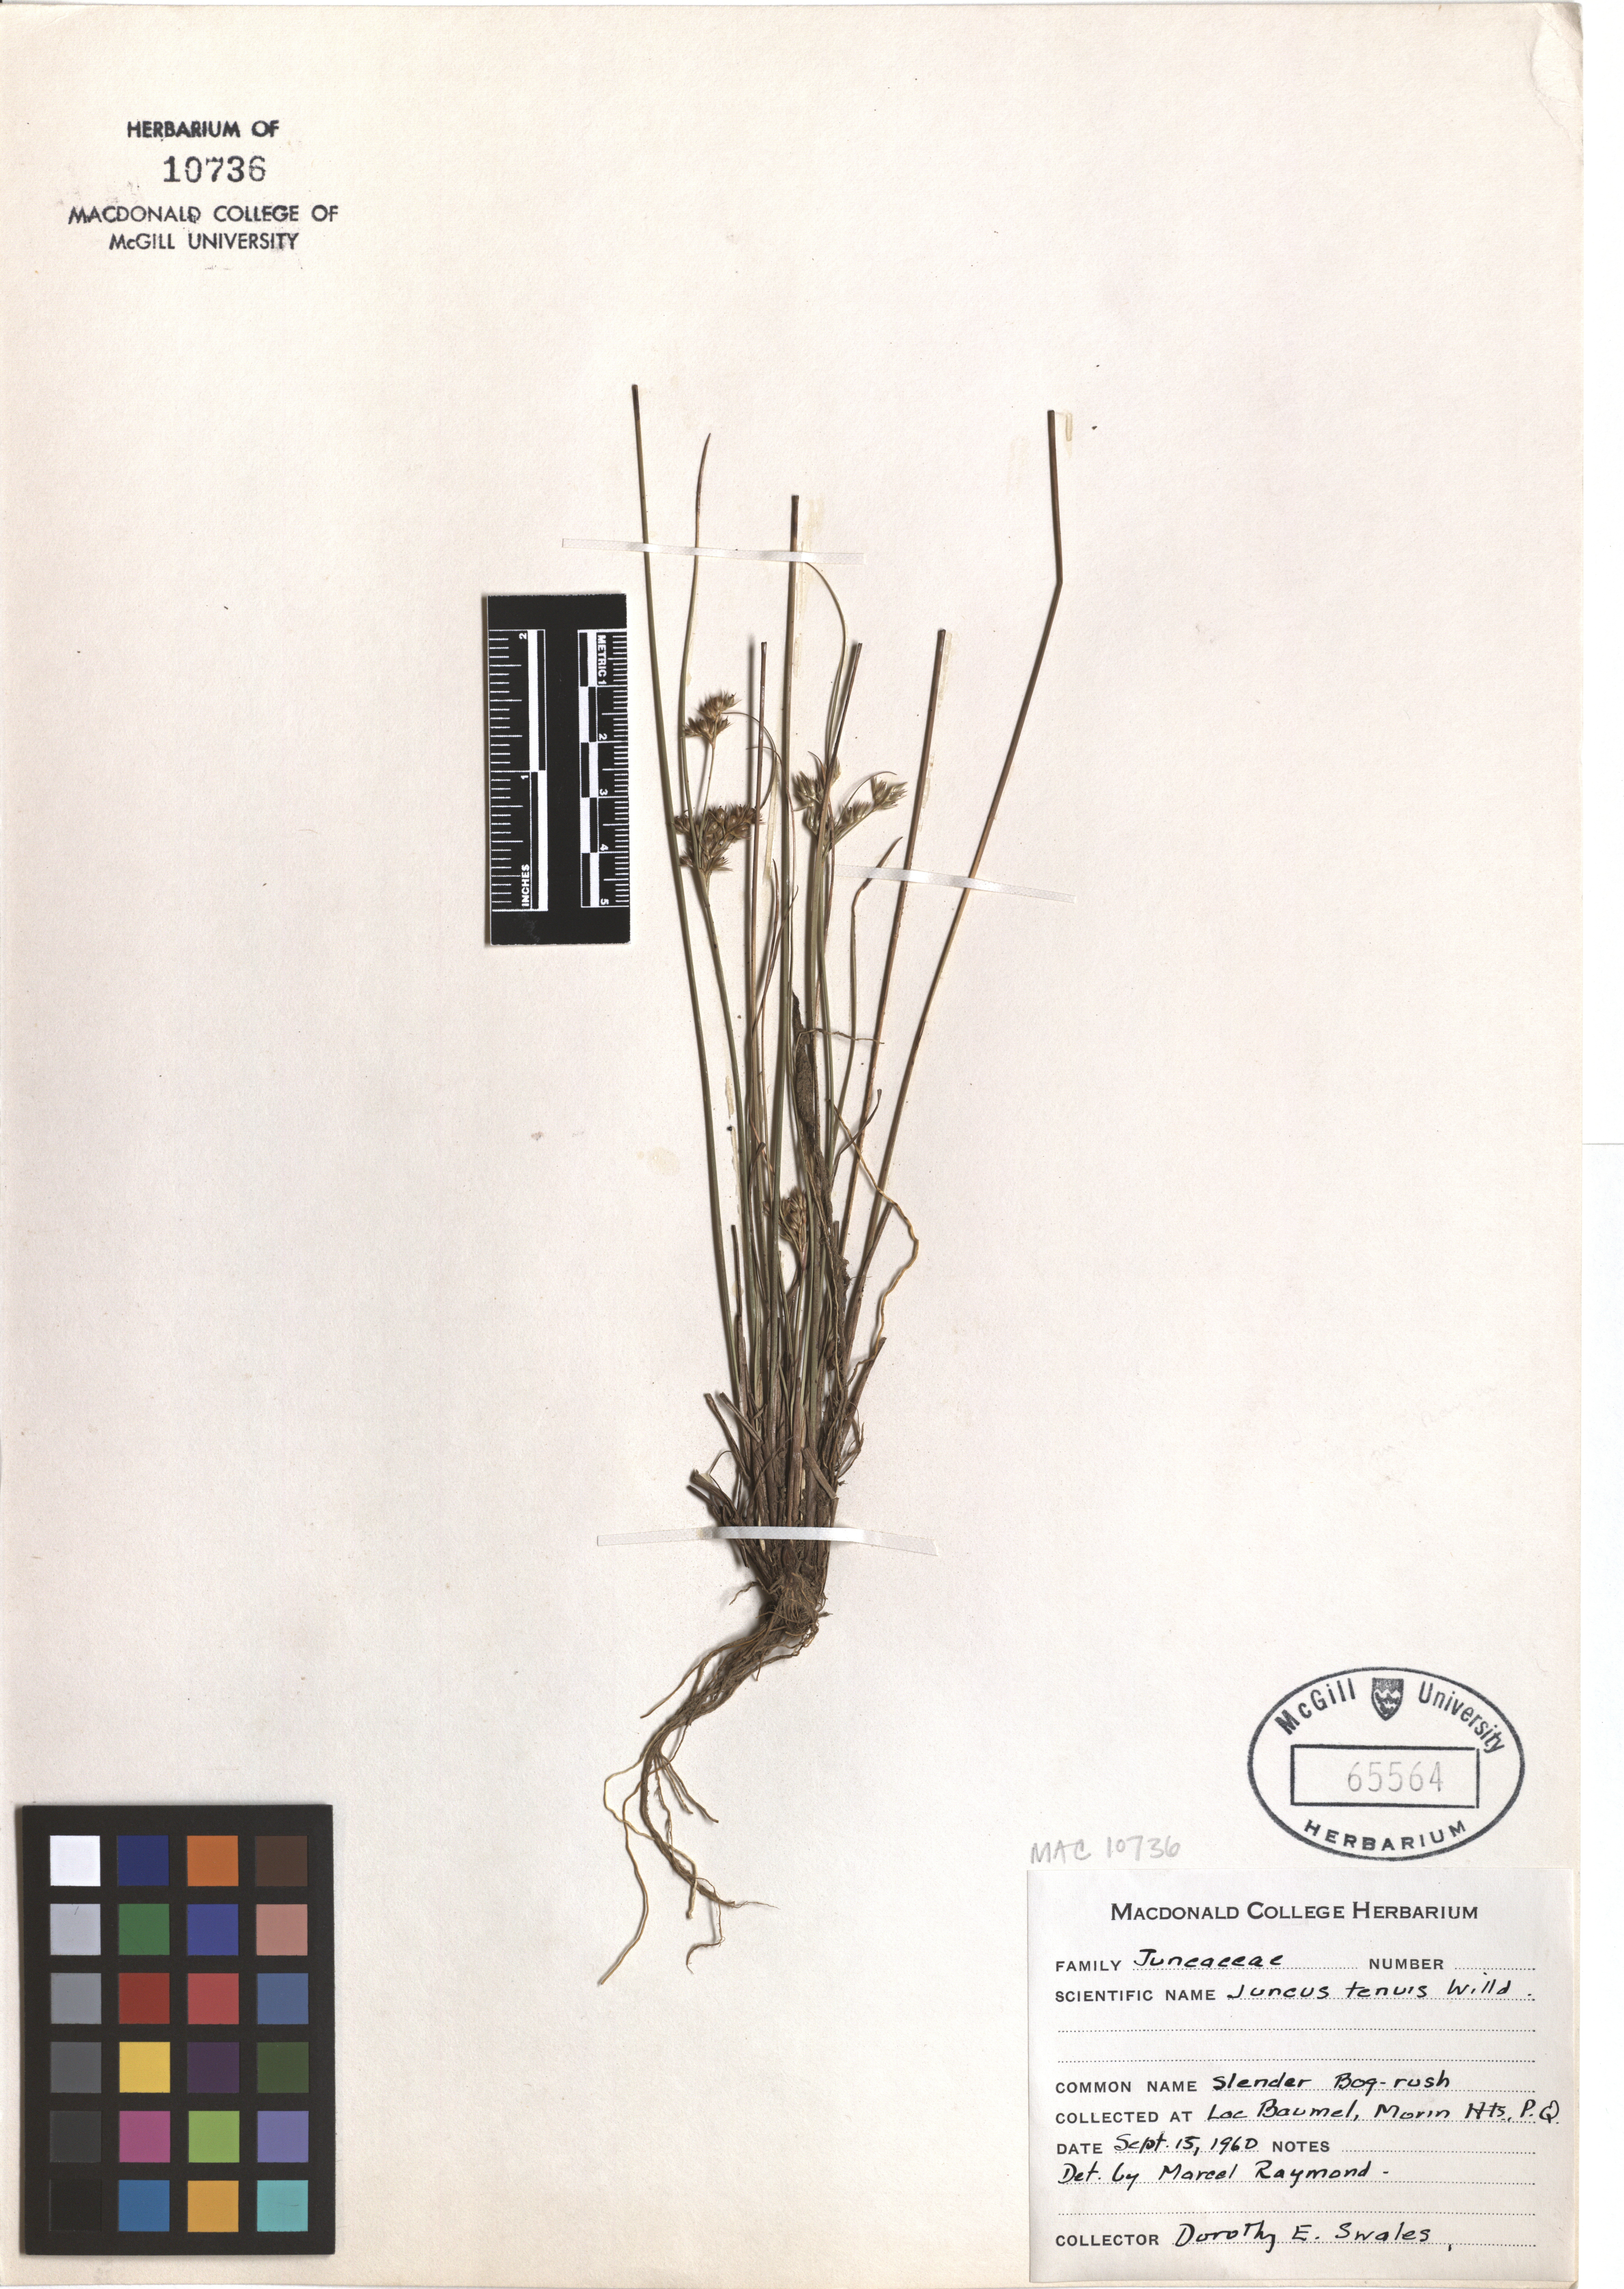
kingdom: Plantae
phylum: Tracheophyta
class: Liliopsida
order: Poales
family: Juncaceae
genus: Juncus
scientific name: Juncus tenuis
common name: Slender rush
